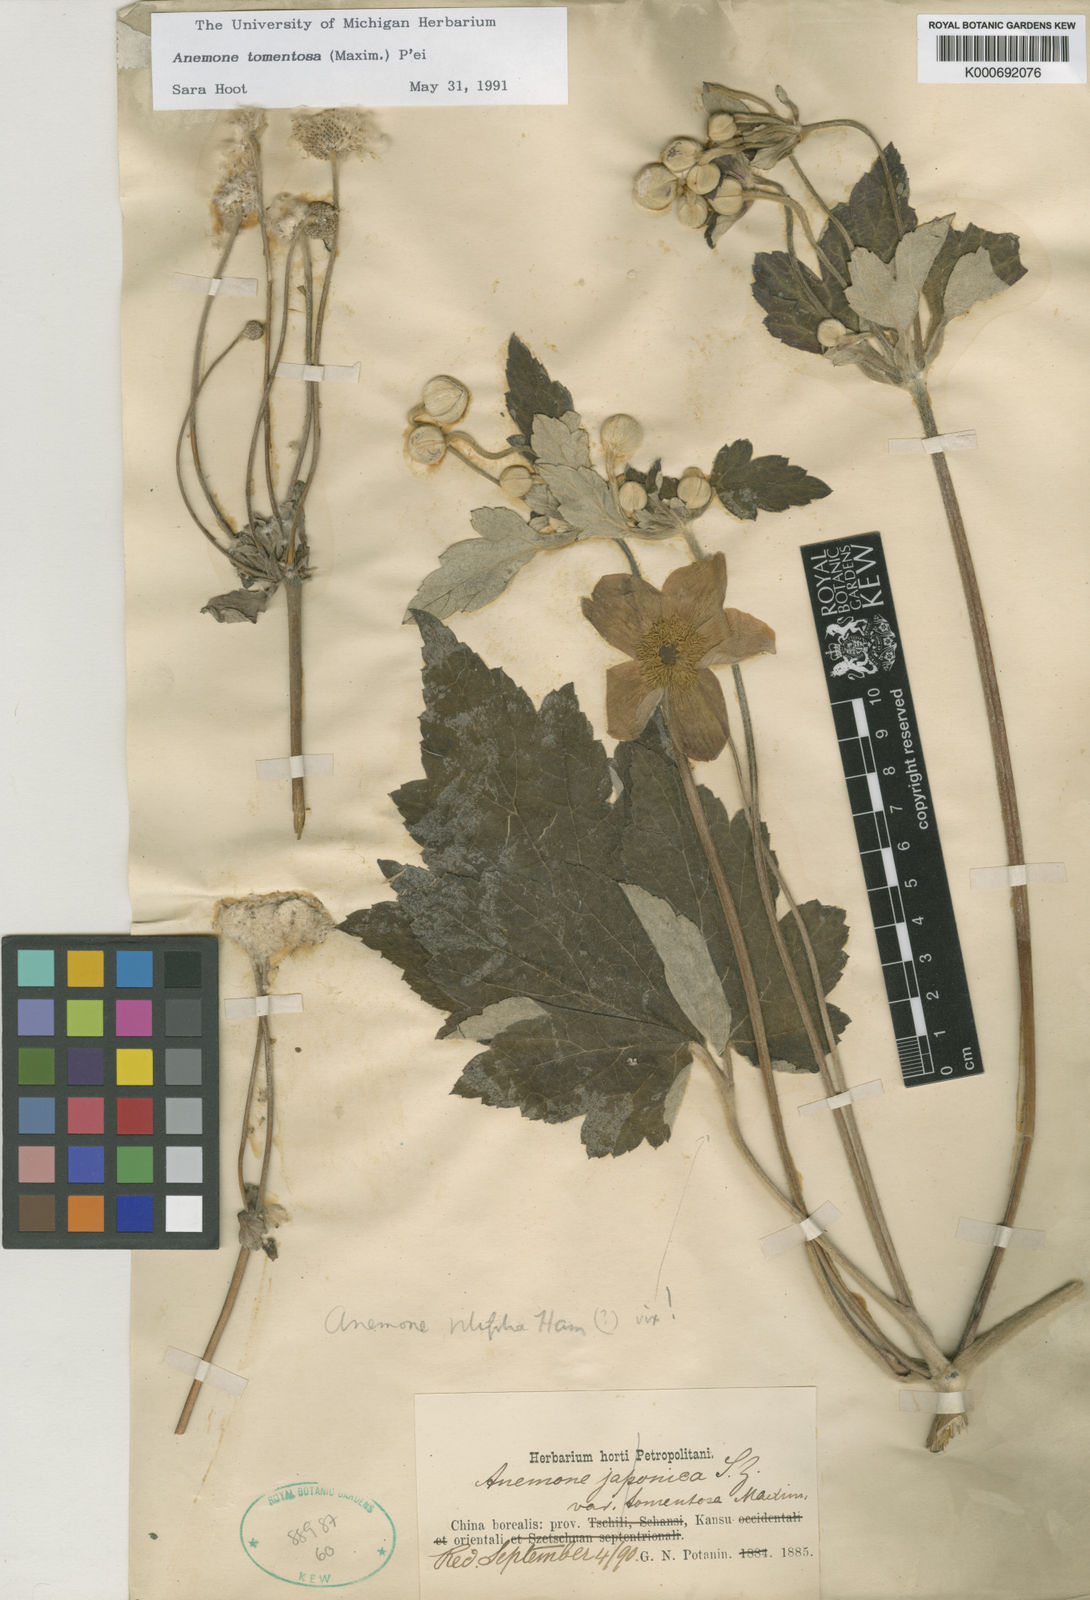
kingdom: Plantae
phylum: Tracheophyta
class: Magnoliopsida
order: Ranunculales
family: Ranunculaceae
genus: Eriocapitella
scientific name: Eriocapitella vitifolia
